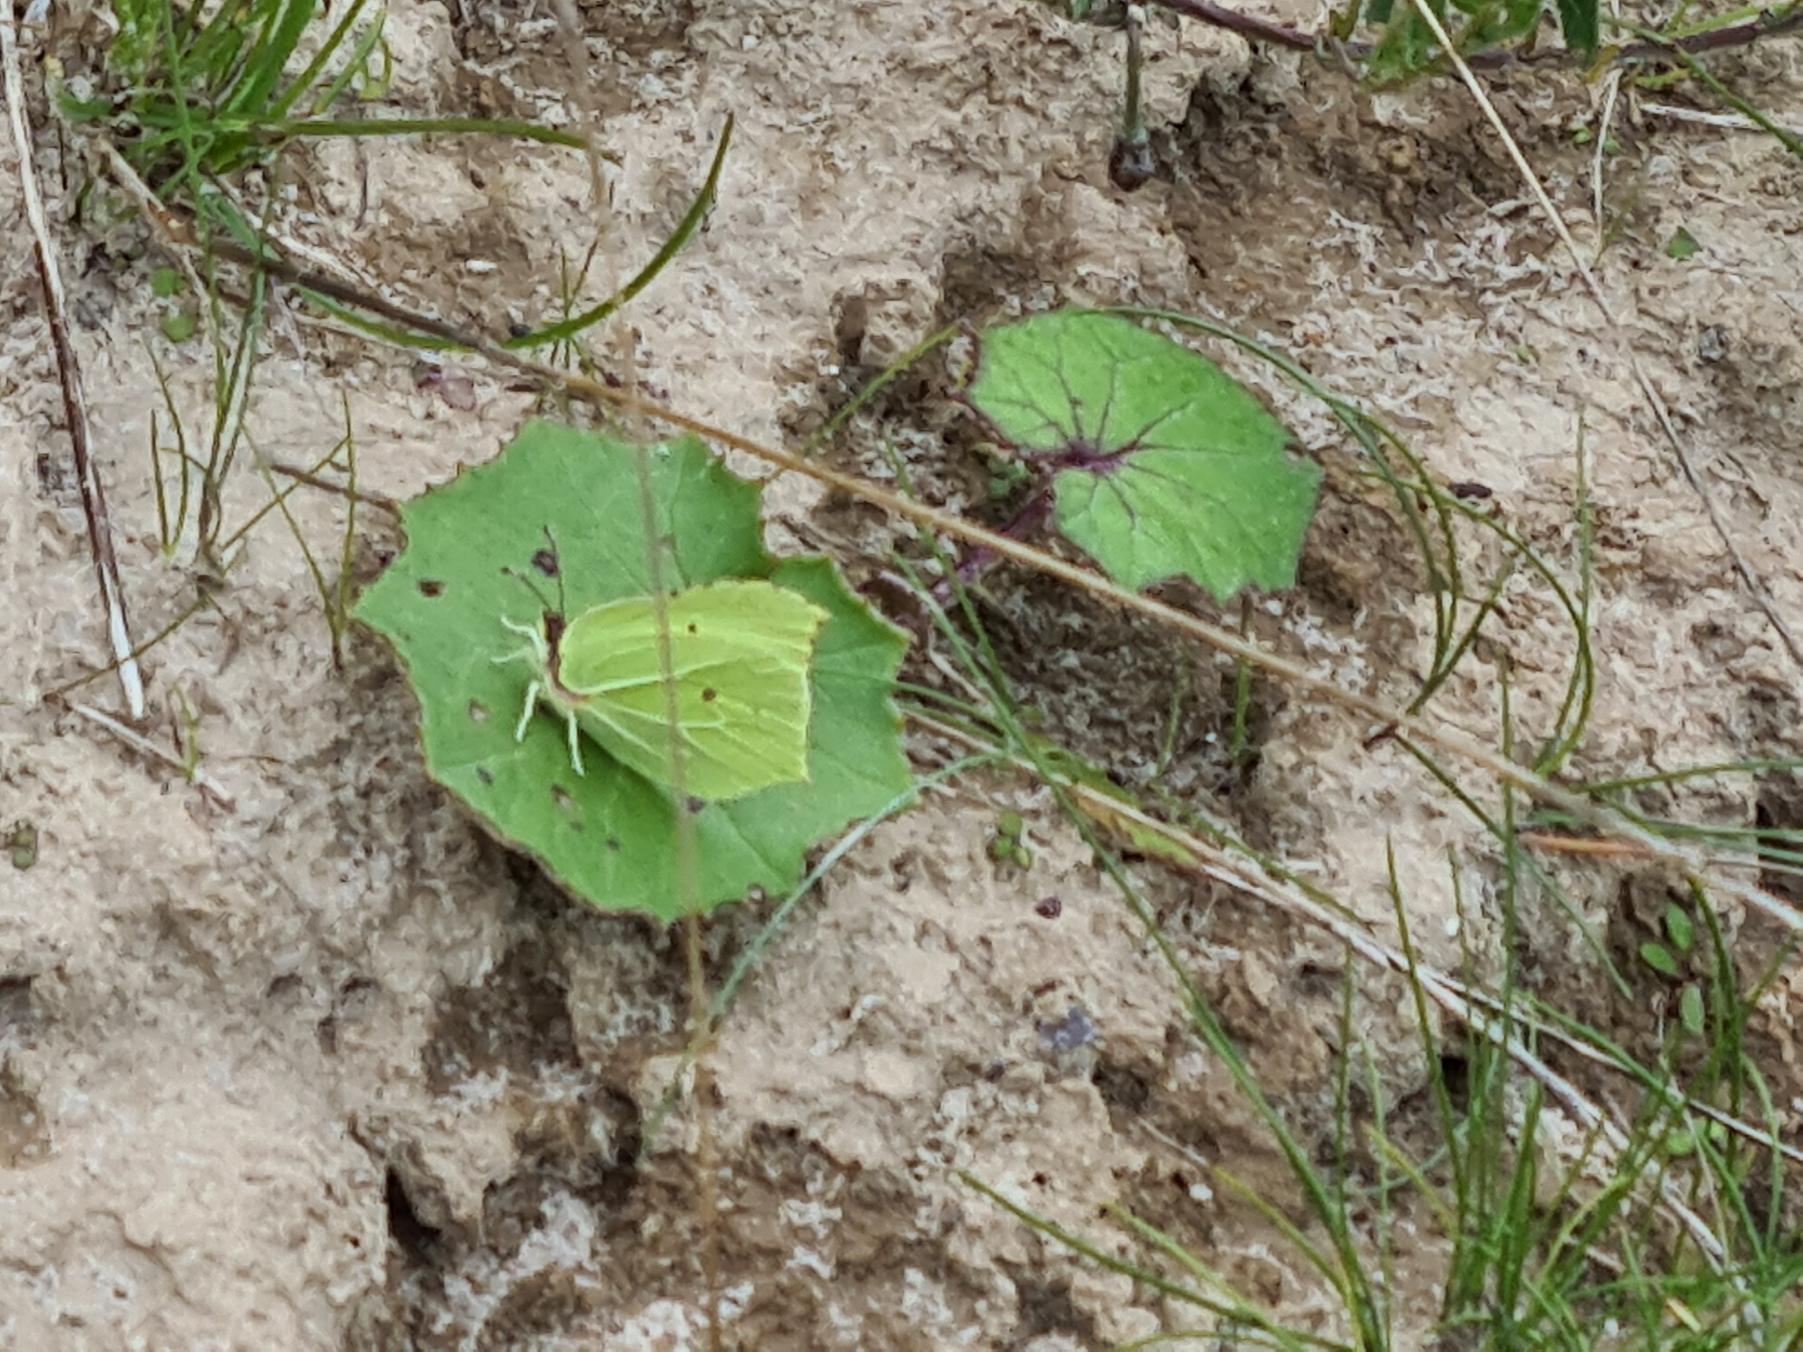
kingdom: Animalia
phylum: Arthropoda
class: Insecta
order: Lepidoptera
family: Pieridae
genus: Gonepteryx
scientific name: Gonepteryx rhamni
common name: Citronsommerfugl
